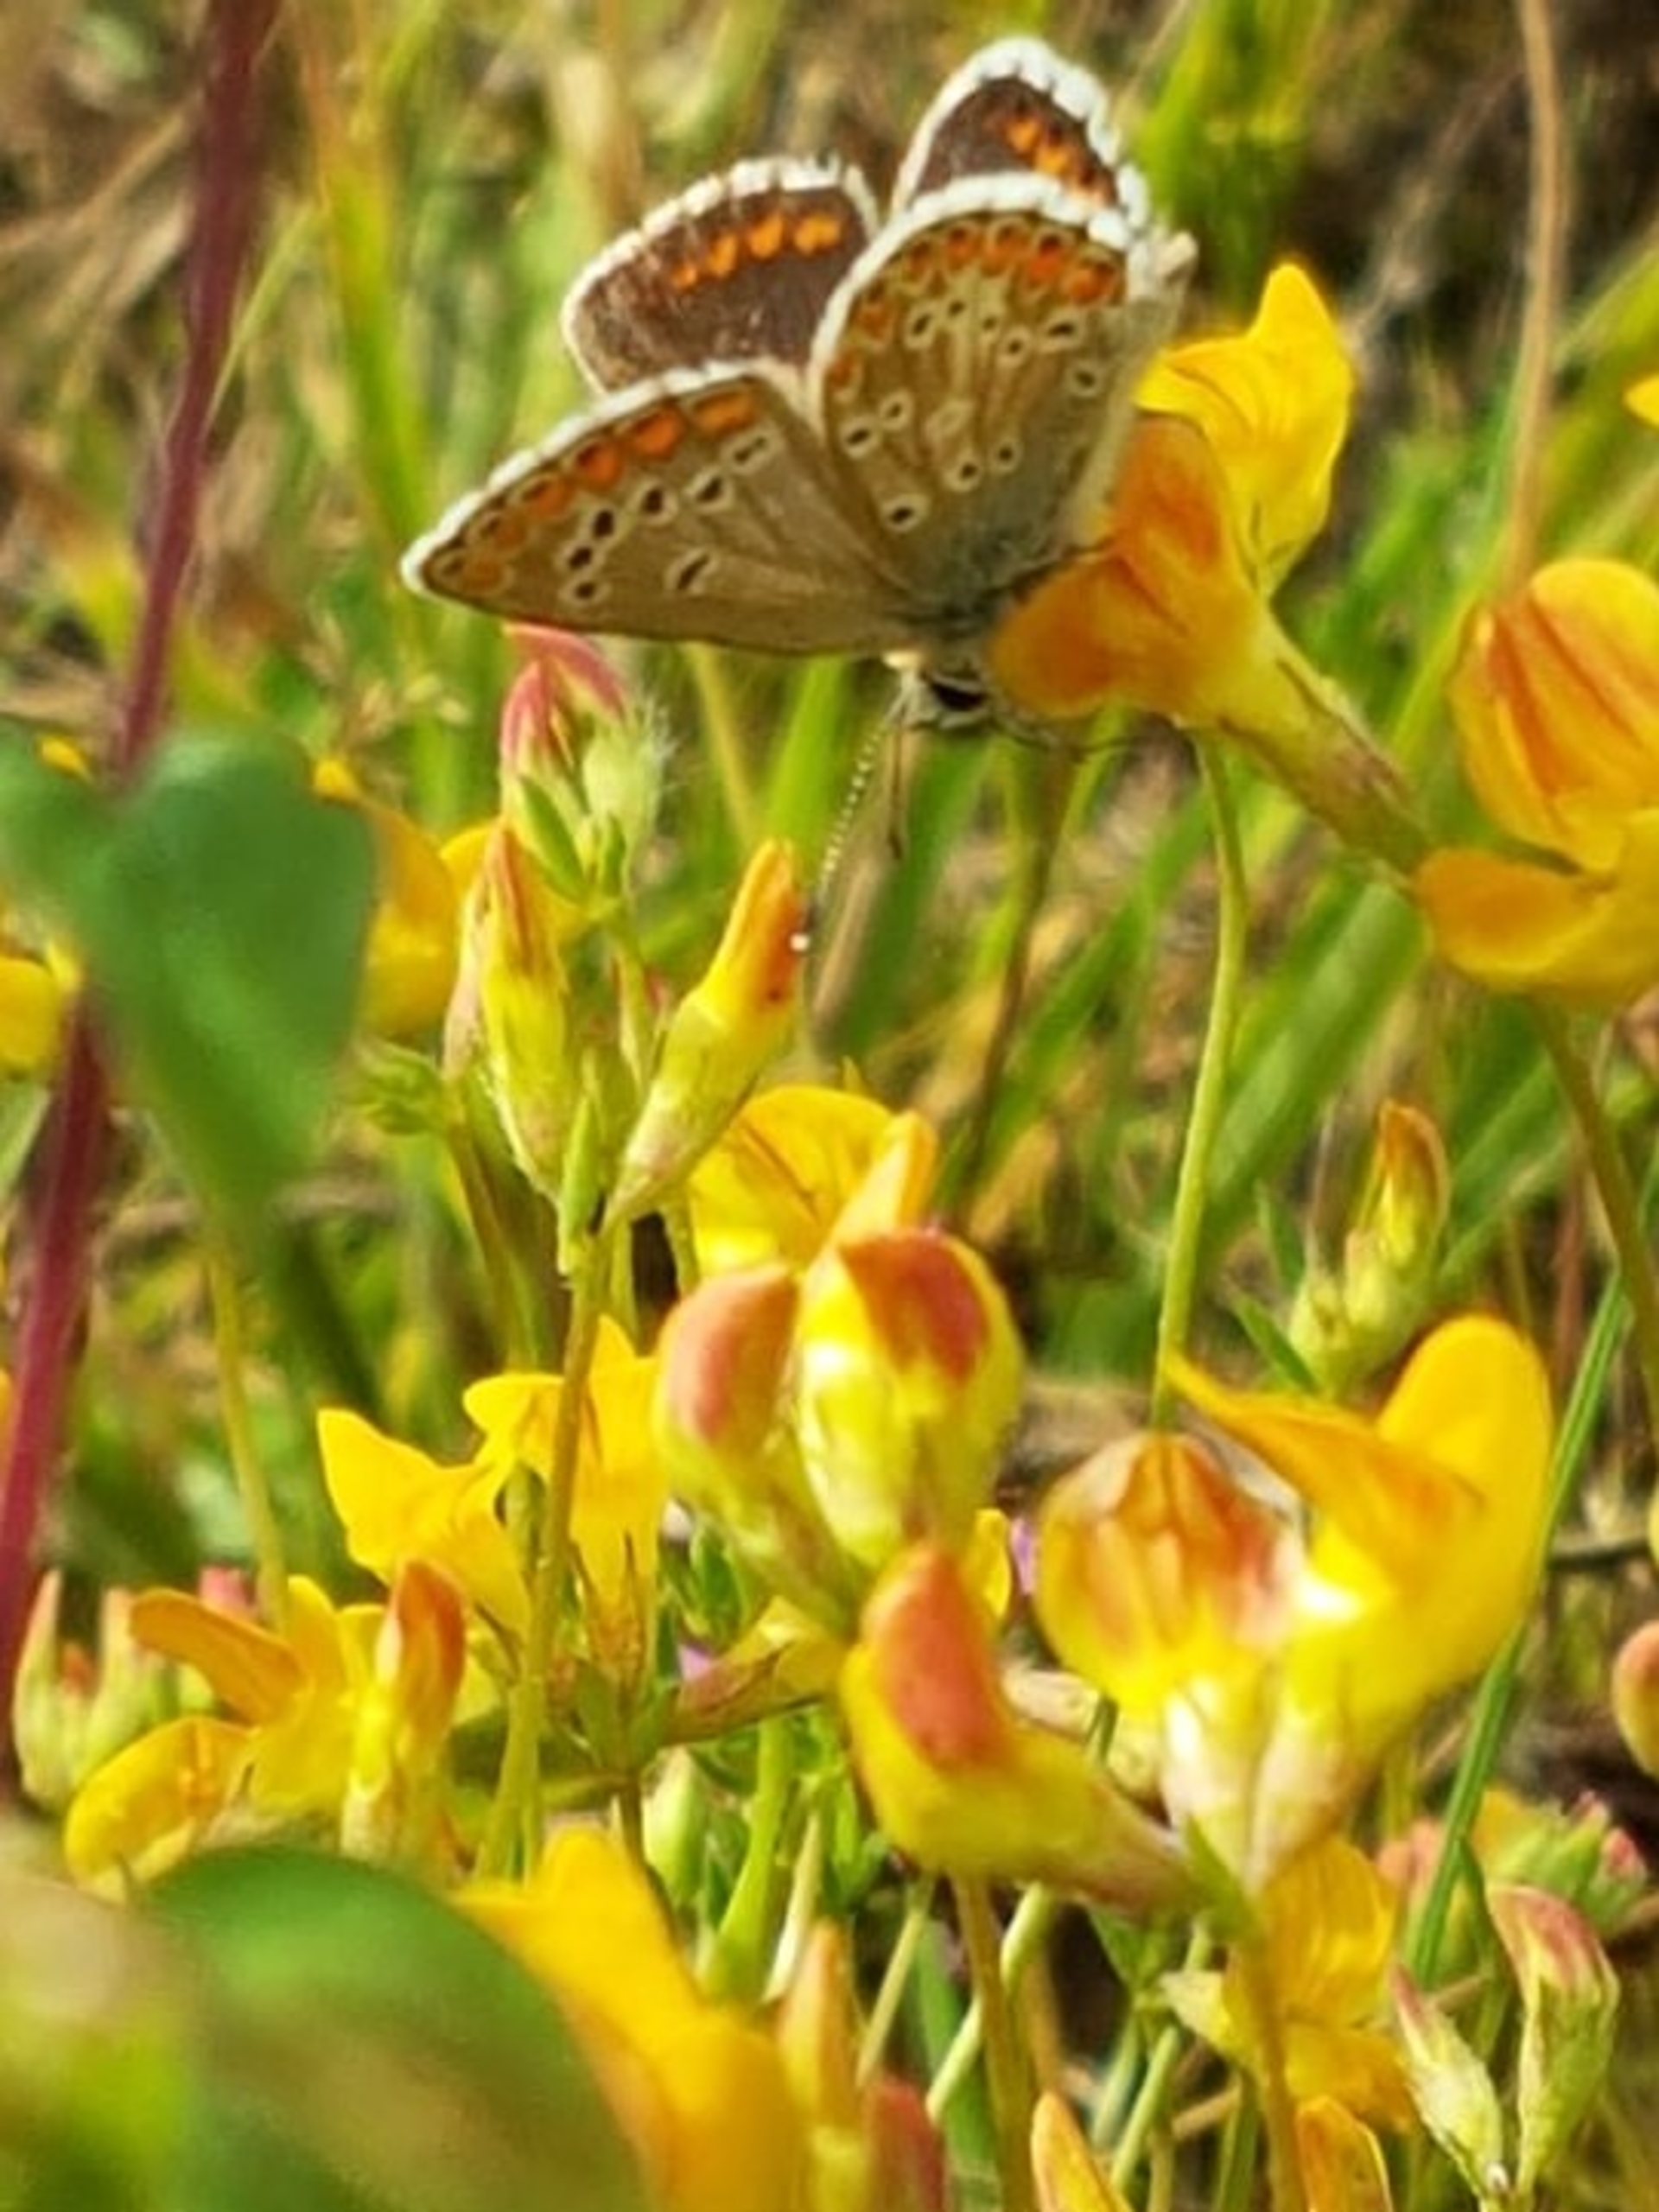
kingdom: Animalia
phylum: Arthropoda
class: Insecta
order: Lepidoptera
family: Lycaenidae
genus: Aricia
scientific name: Aricia agestis
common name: Rødplettet blåfugl
